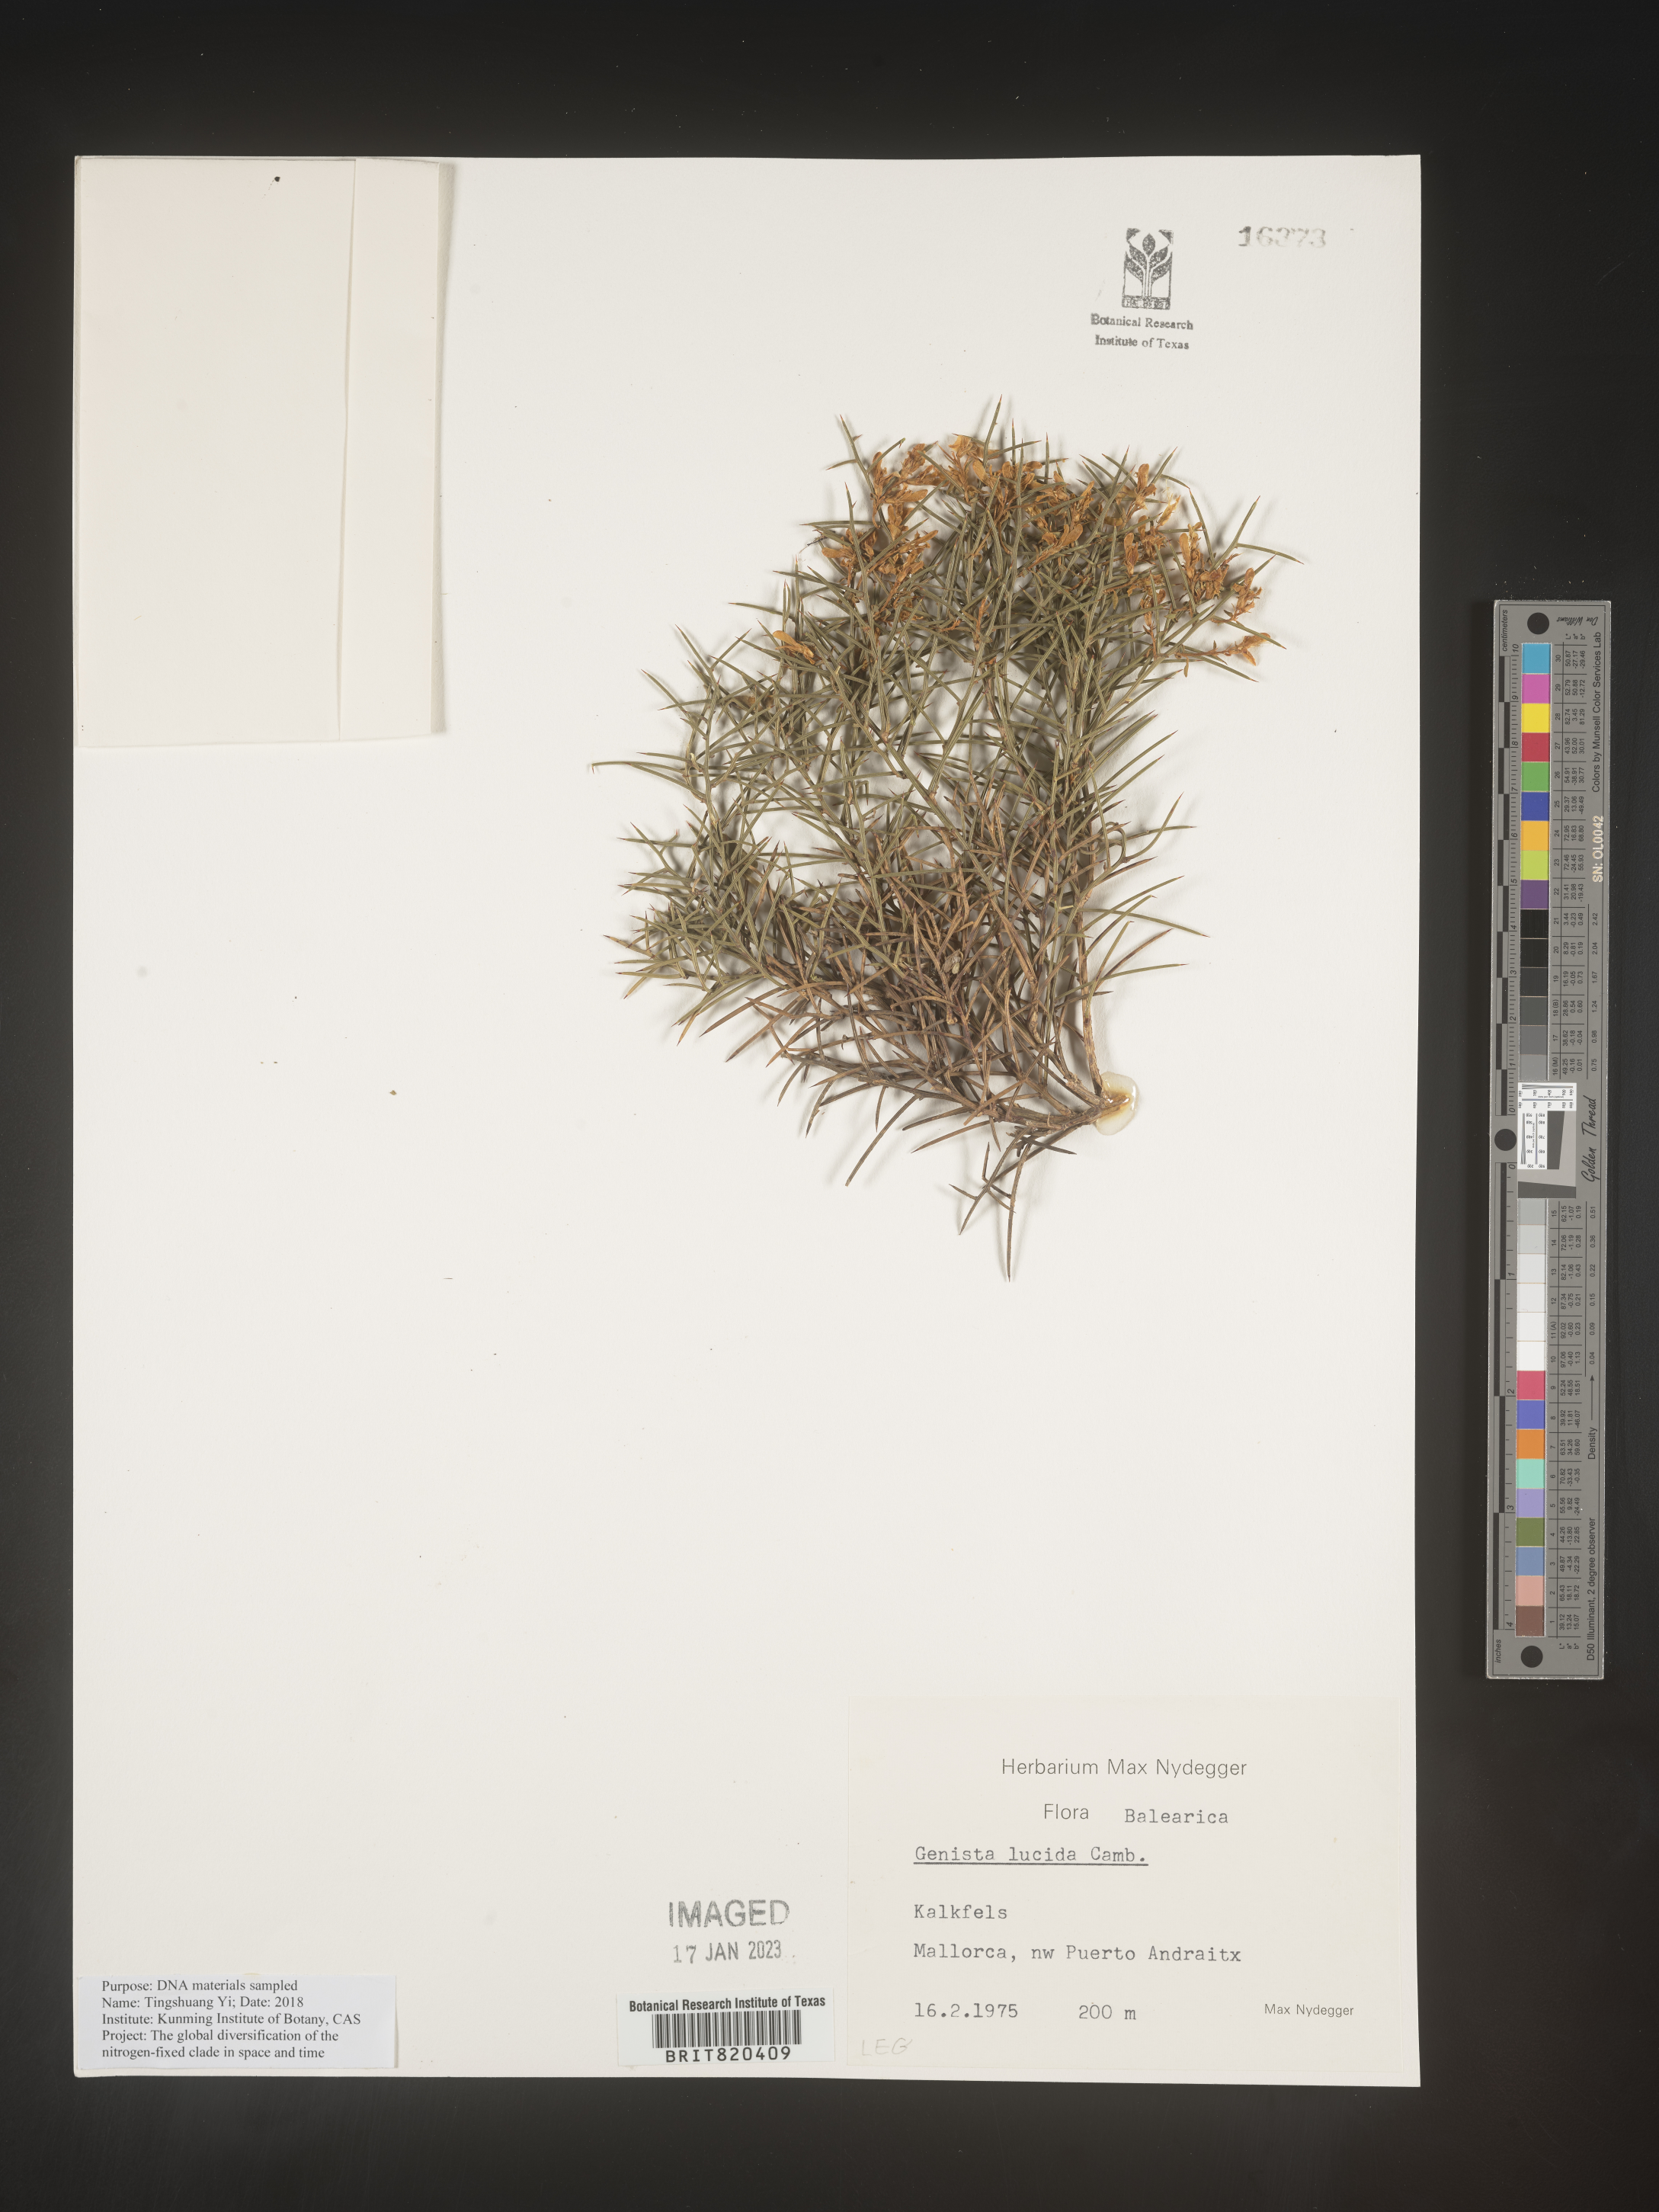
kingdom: Plantae
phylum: Tracheophyta
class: Magnoliopsida
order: Fabales
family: Fabaceae
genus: Genista
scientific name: Genista
